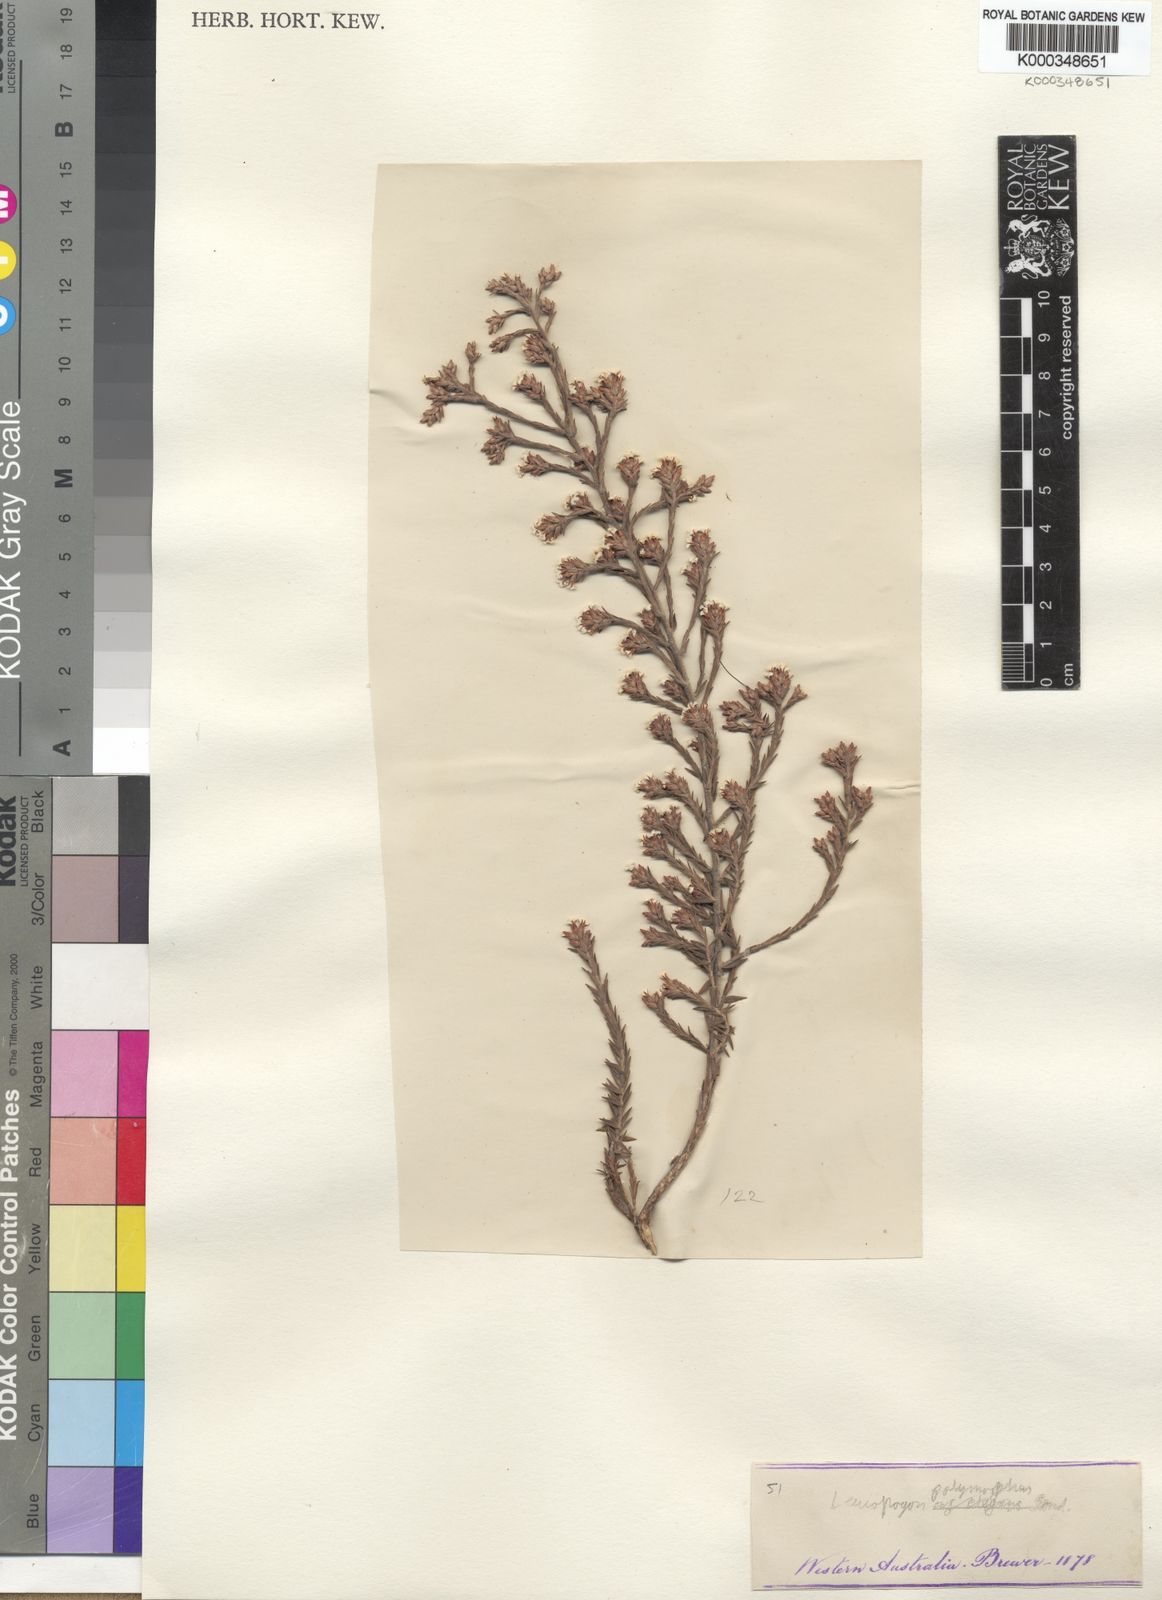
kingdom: Plantae
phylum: Tracheophyta
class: Magnoliopsida
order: Ericales
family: Ericaceae
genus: Leucopogon
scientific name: Leucopogon polymorphus
